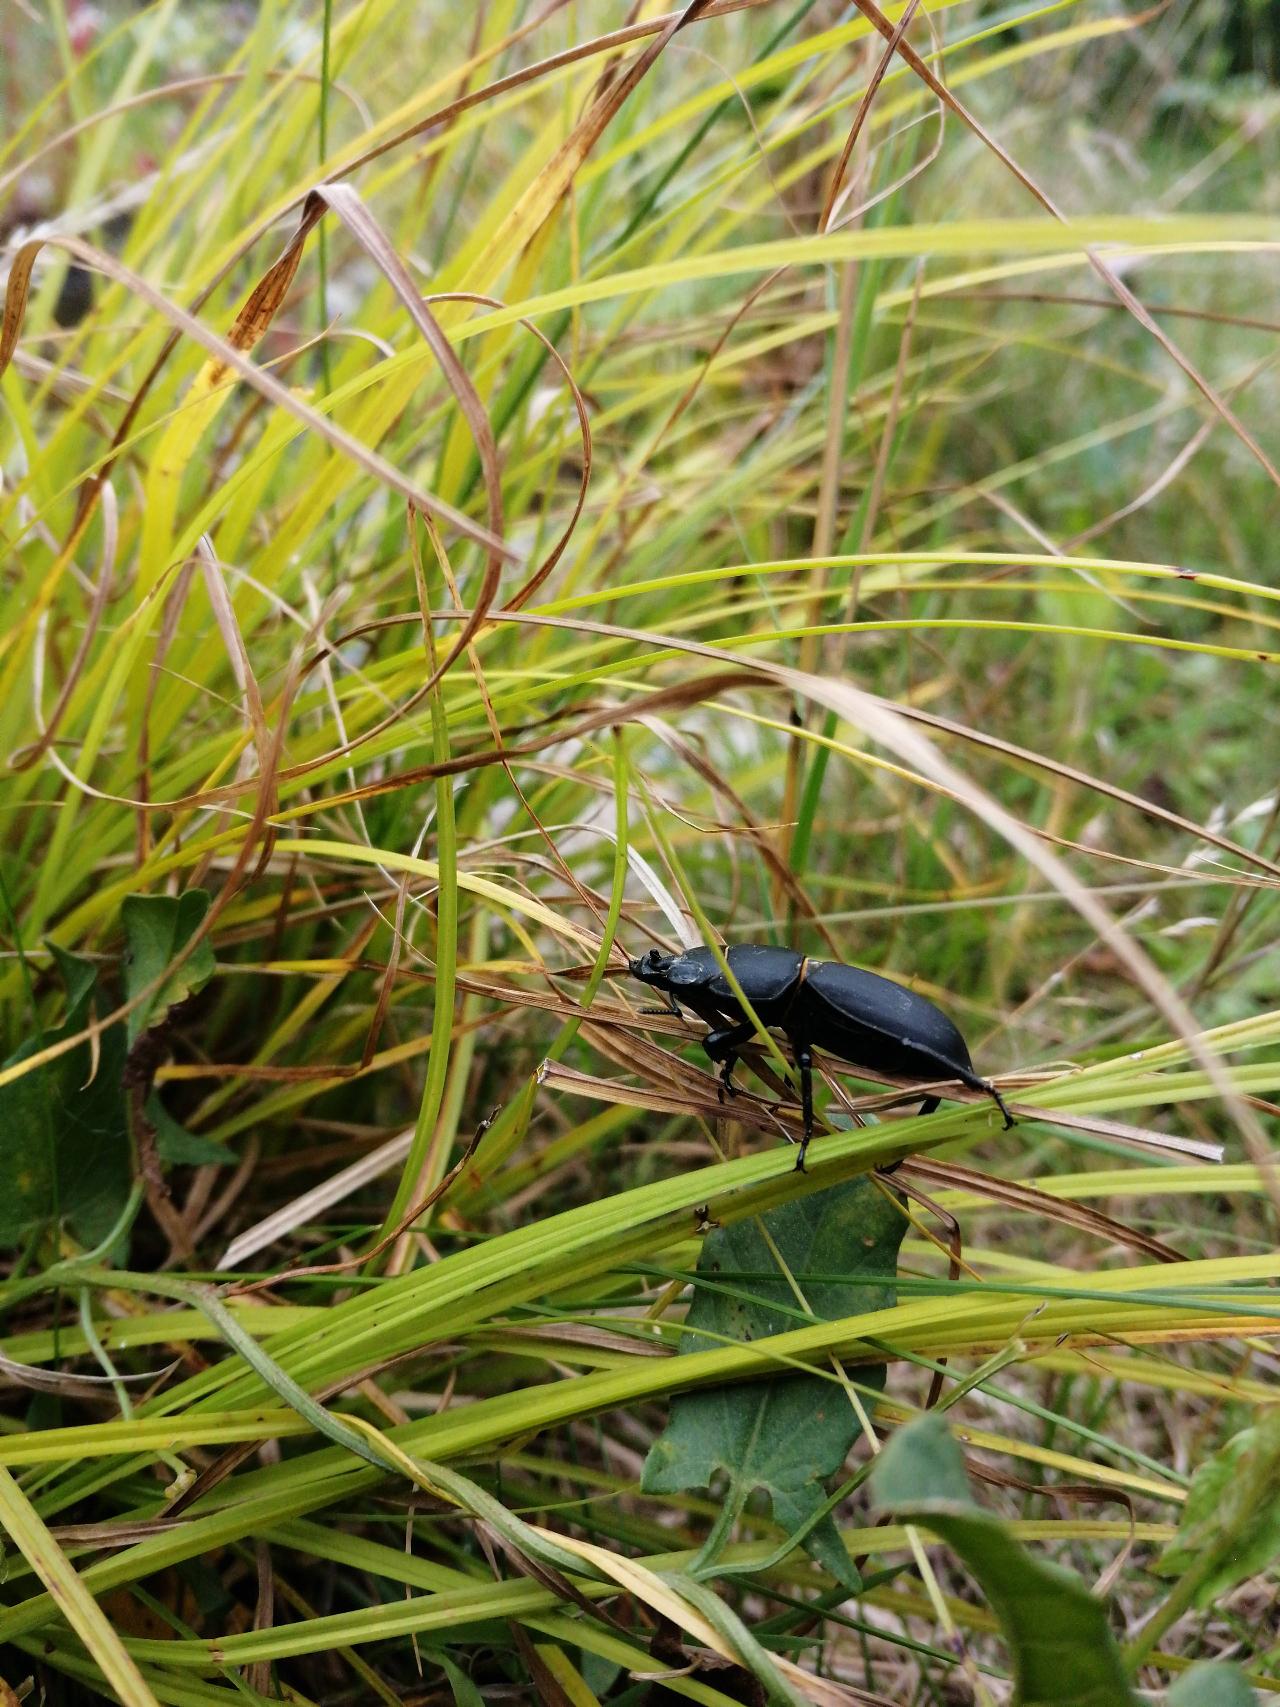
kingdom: Animalia
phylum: Arthropoda
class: Insecta
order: Coleoptera
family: Lucanidae
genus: Dorcus
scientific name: Dorcus parallelipipedus
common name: Bøghjort
